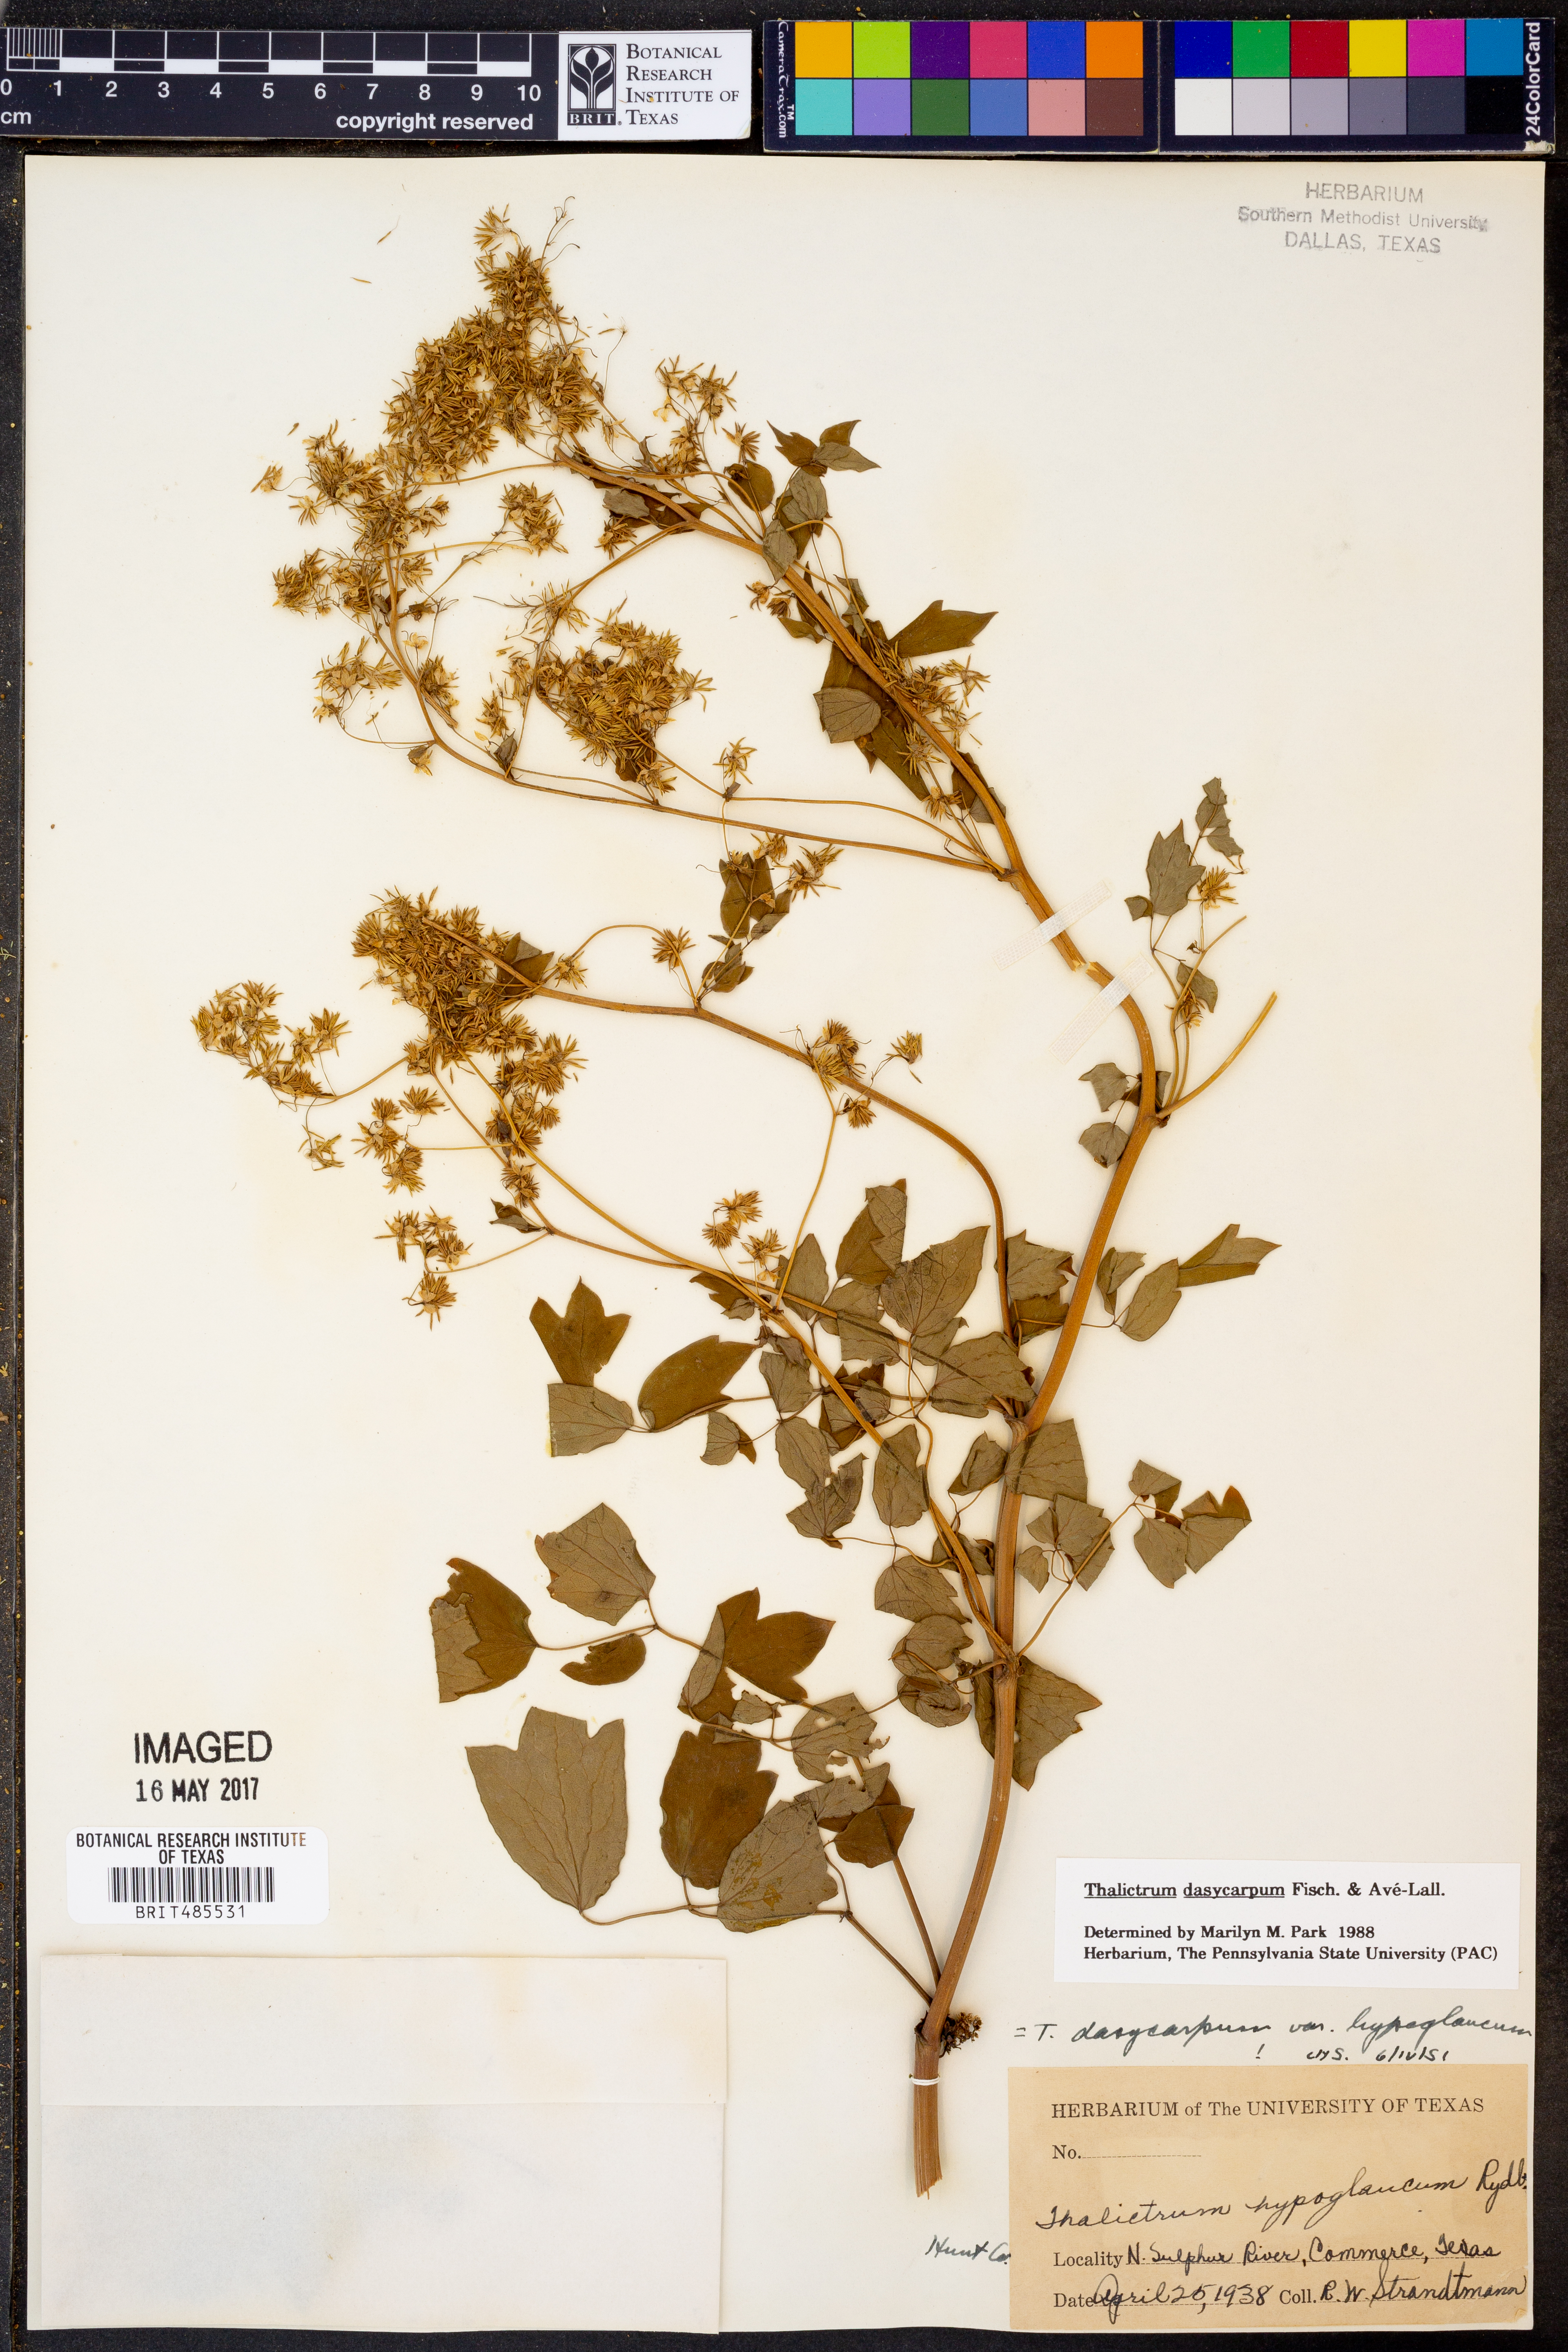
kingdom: Plantae
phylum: Tracheophyta
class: Magnoliopsida
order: Ranunculales
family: Ranunculaceae
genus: Thalictrum
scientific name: Thalictrum dasycarpum
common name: Purple meadow-rue
